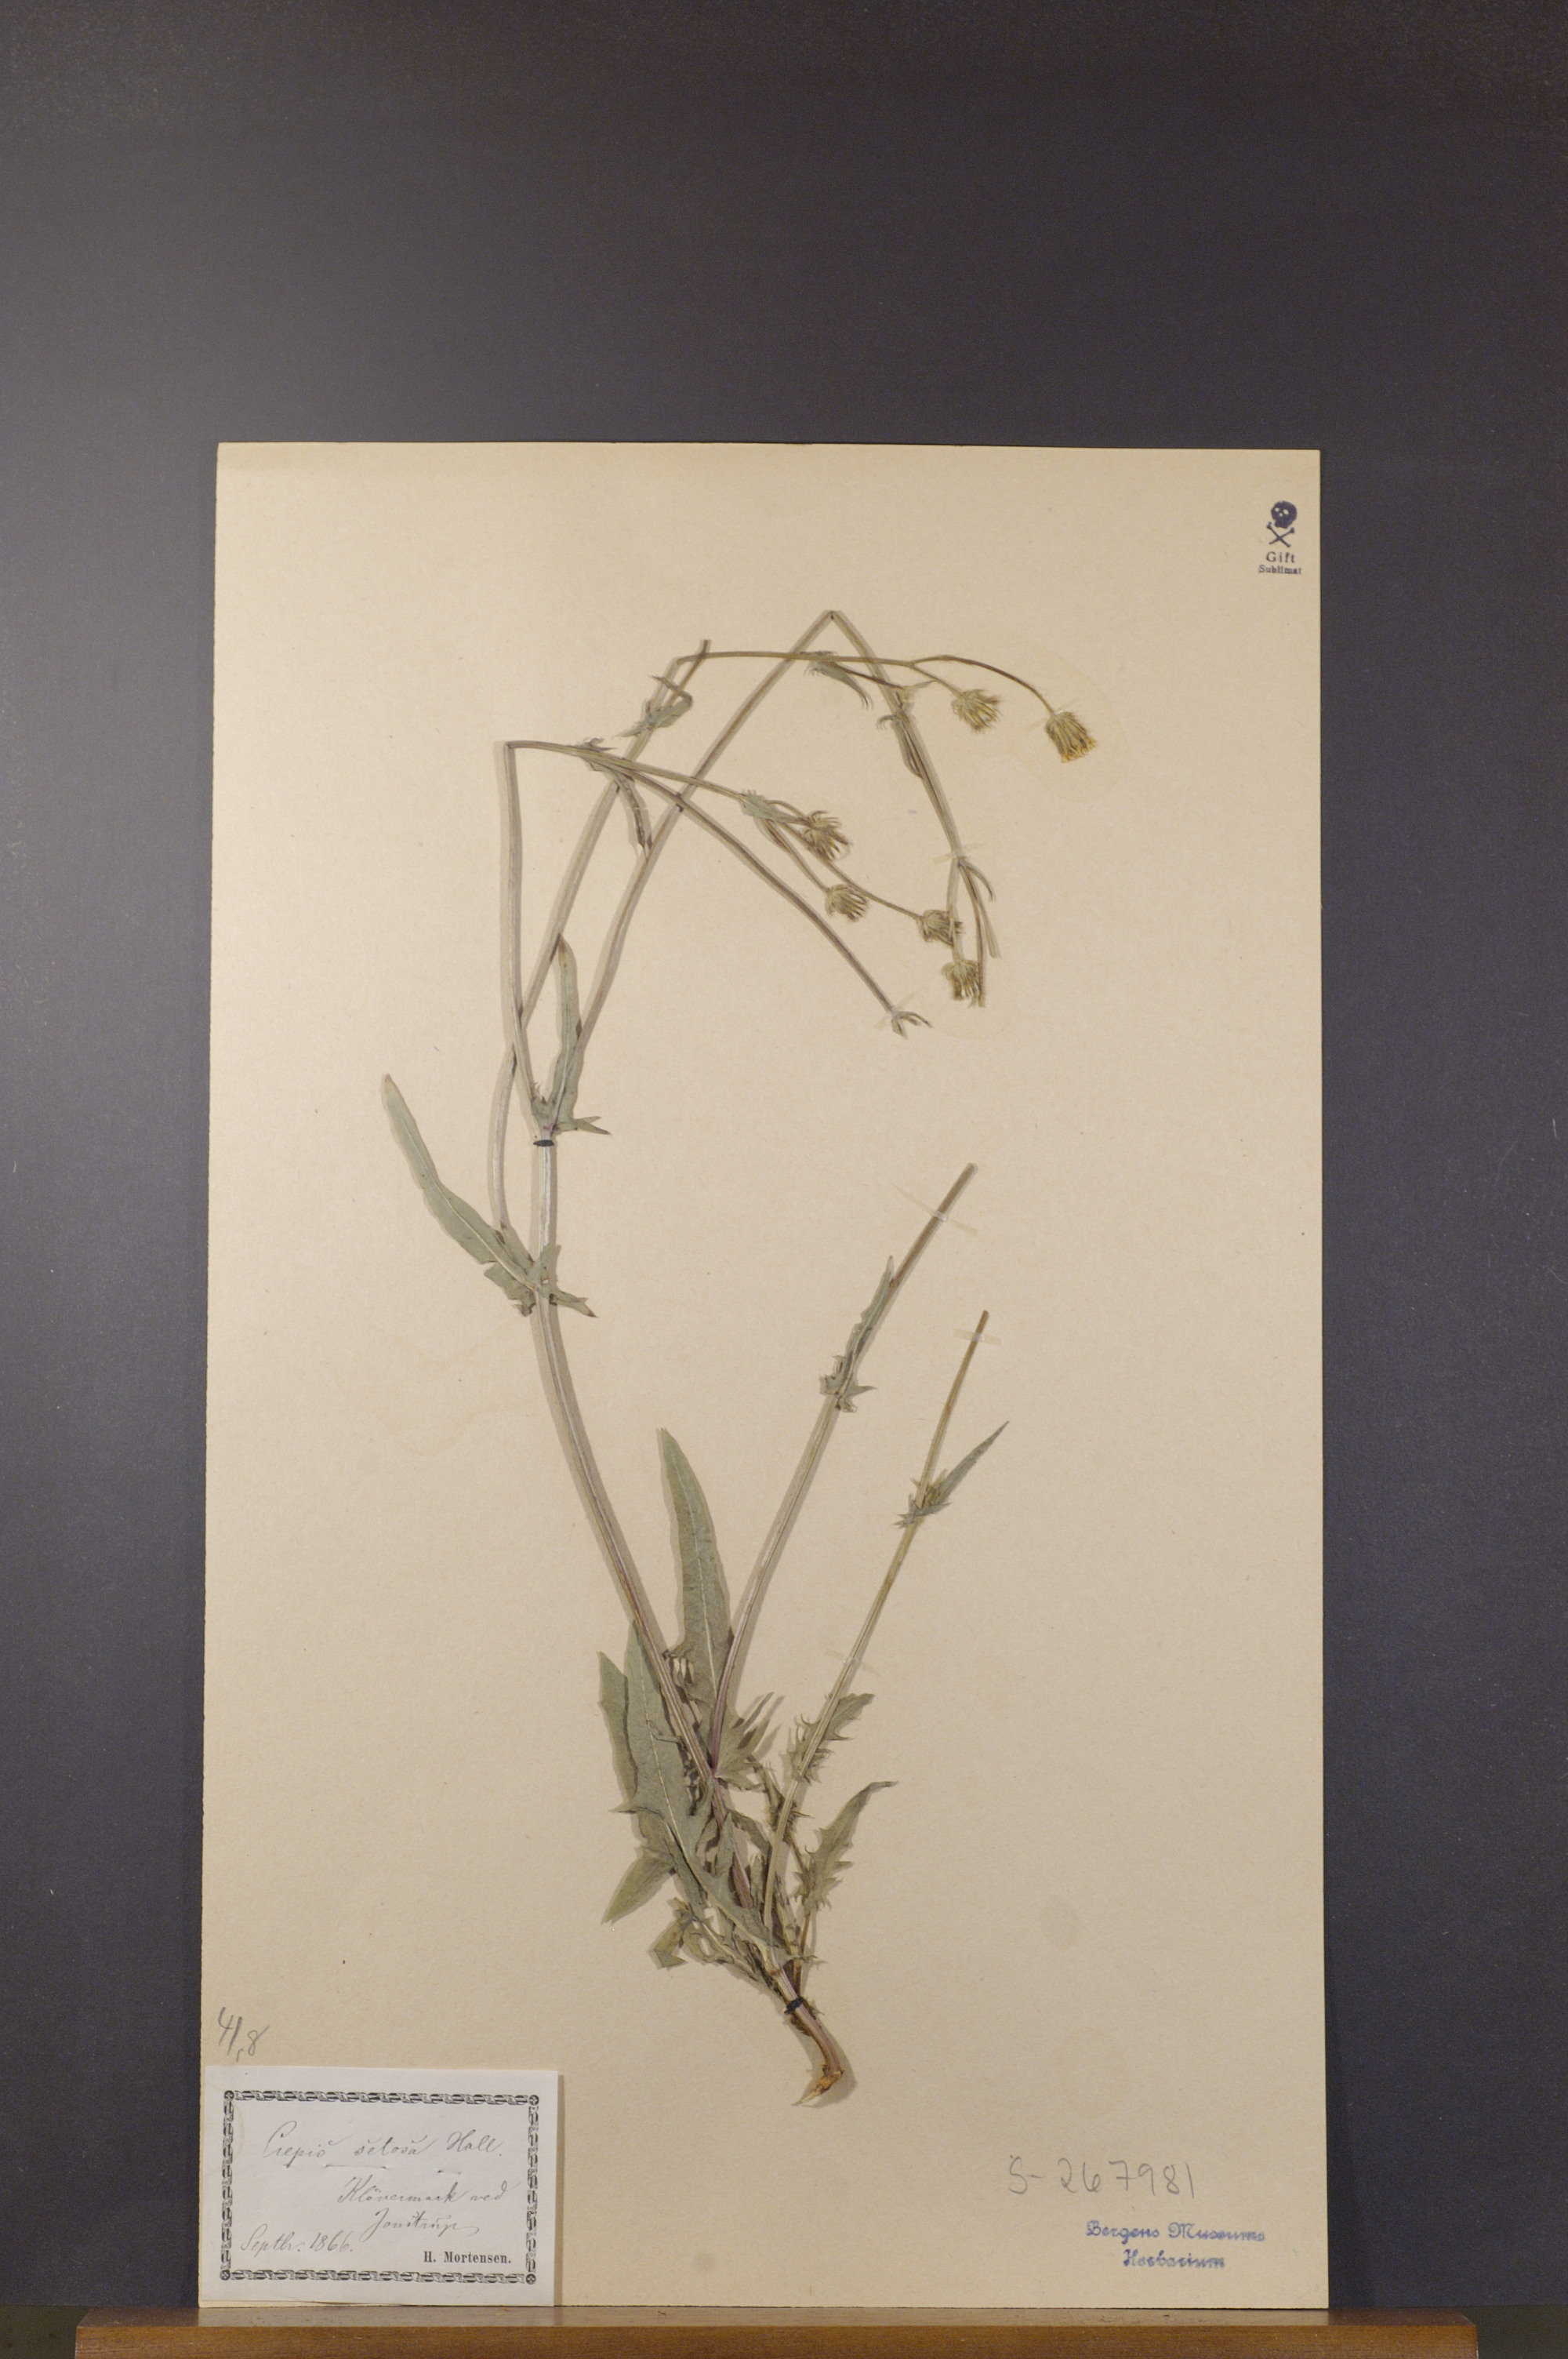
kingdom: Plantae
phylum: Tracheophyta
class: Magnoliopsida
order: Asterales
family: Asteraceae
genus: Crepis
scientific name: Crepis setosa
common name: Bristly hawk's-beard
